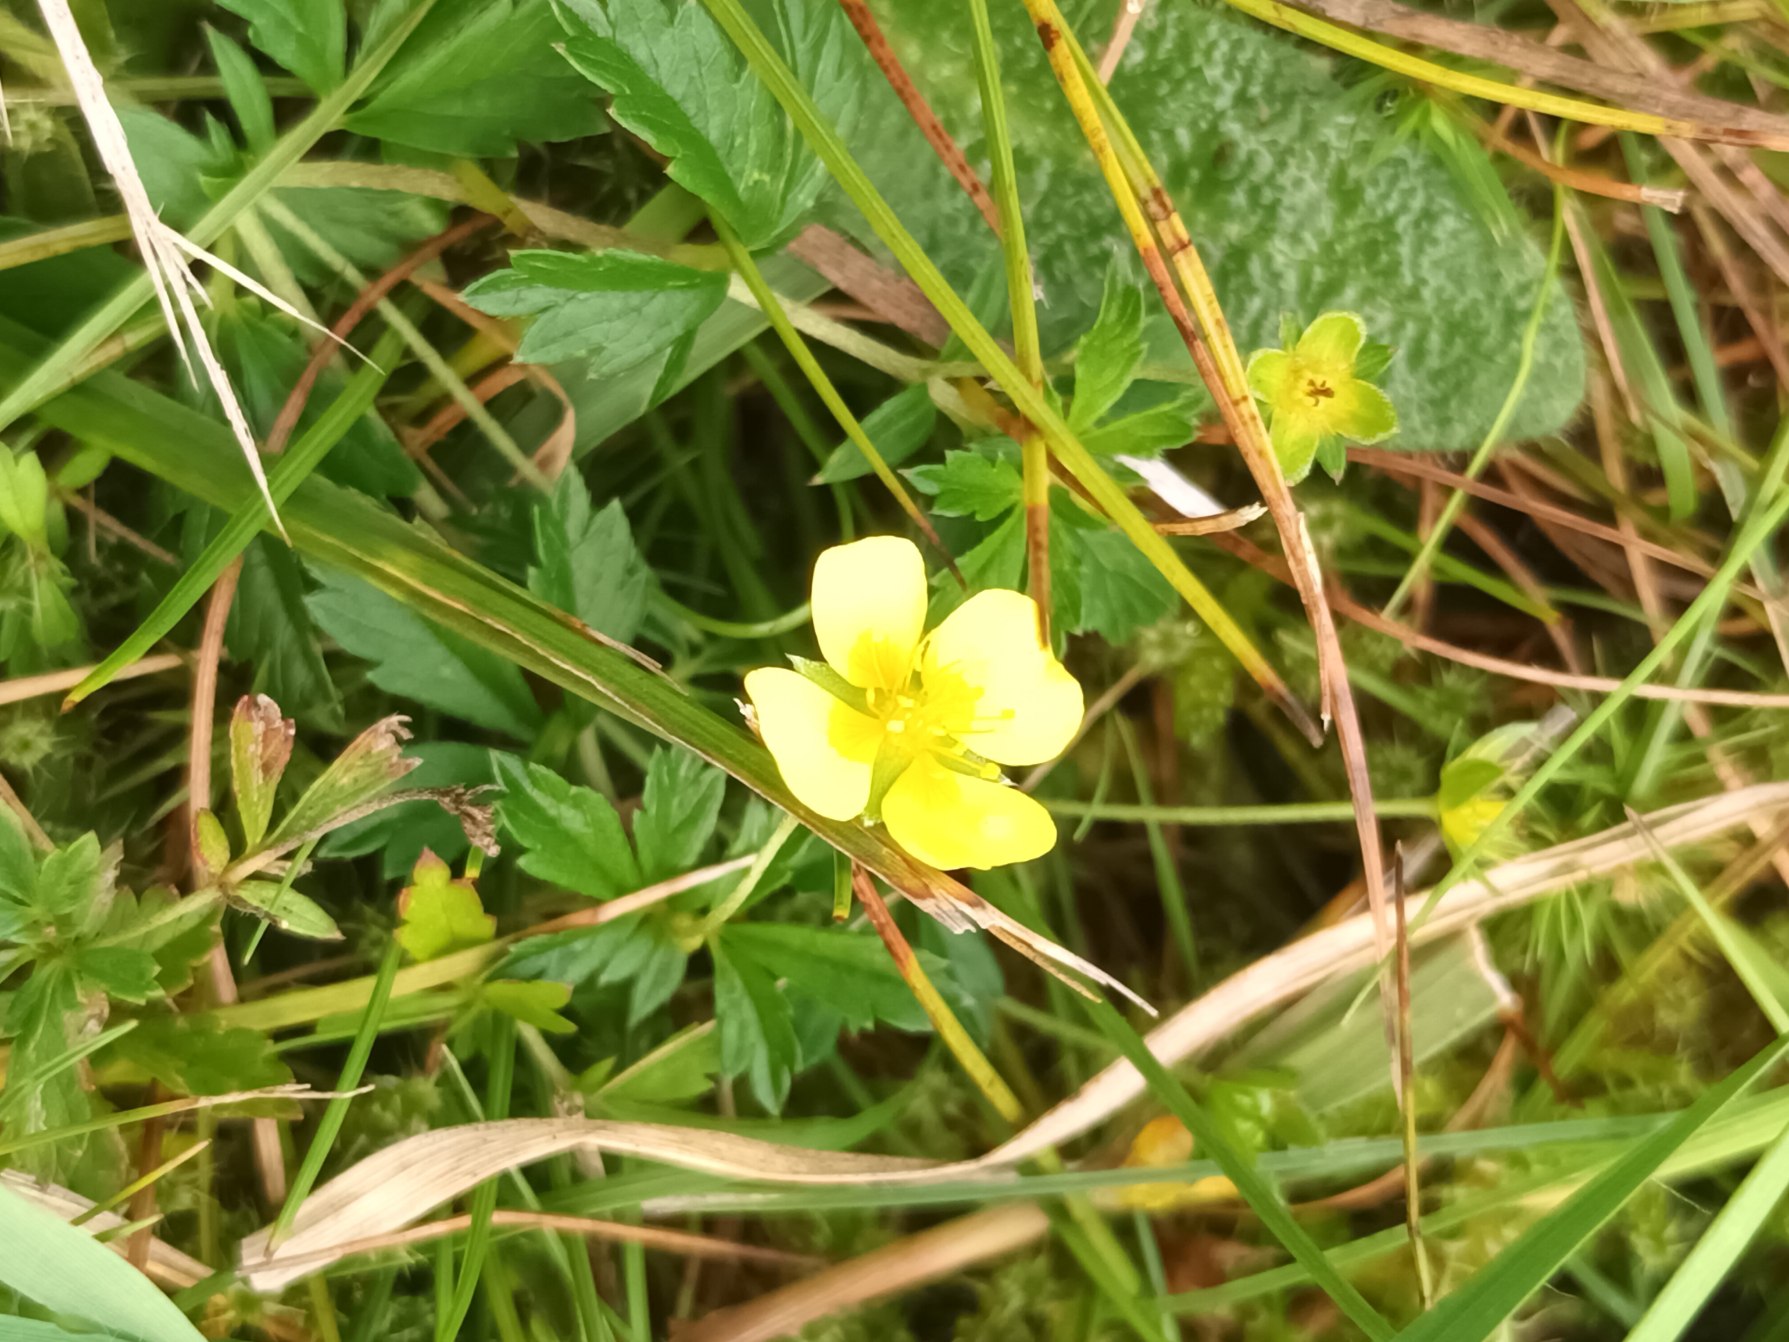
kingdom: Plantae
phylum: Tracheophyta
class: Magnoliopsida
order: Rosales
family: Rosaceae
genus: Potentilla
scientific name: Potentilla erecta
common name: Tormentil
